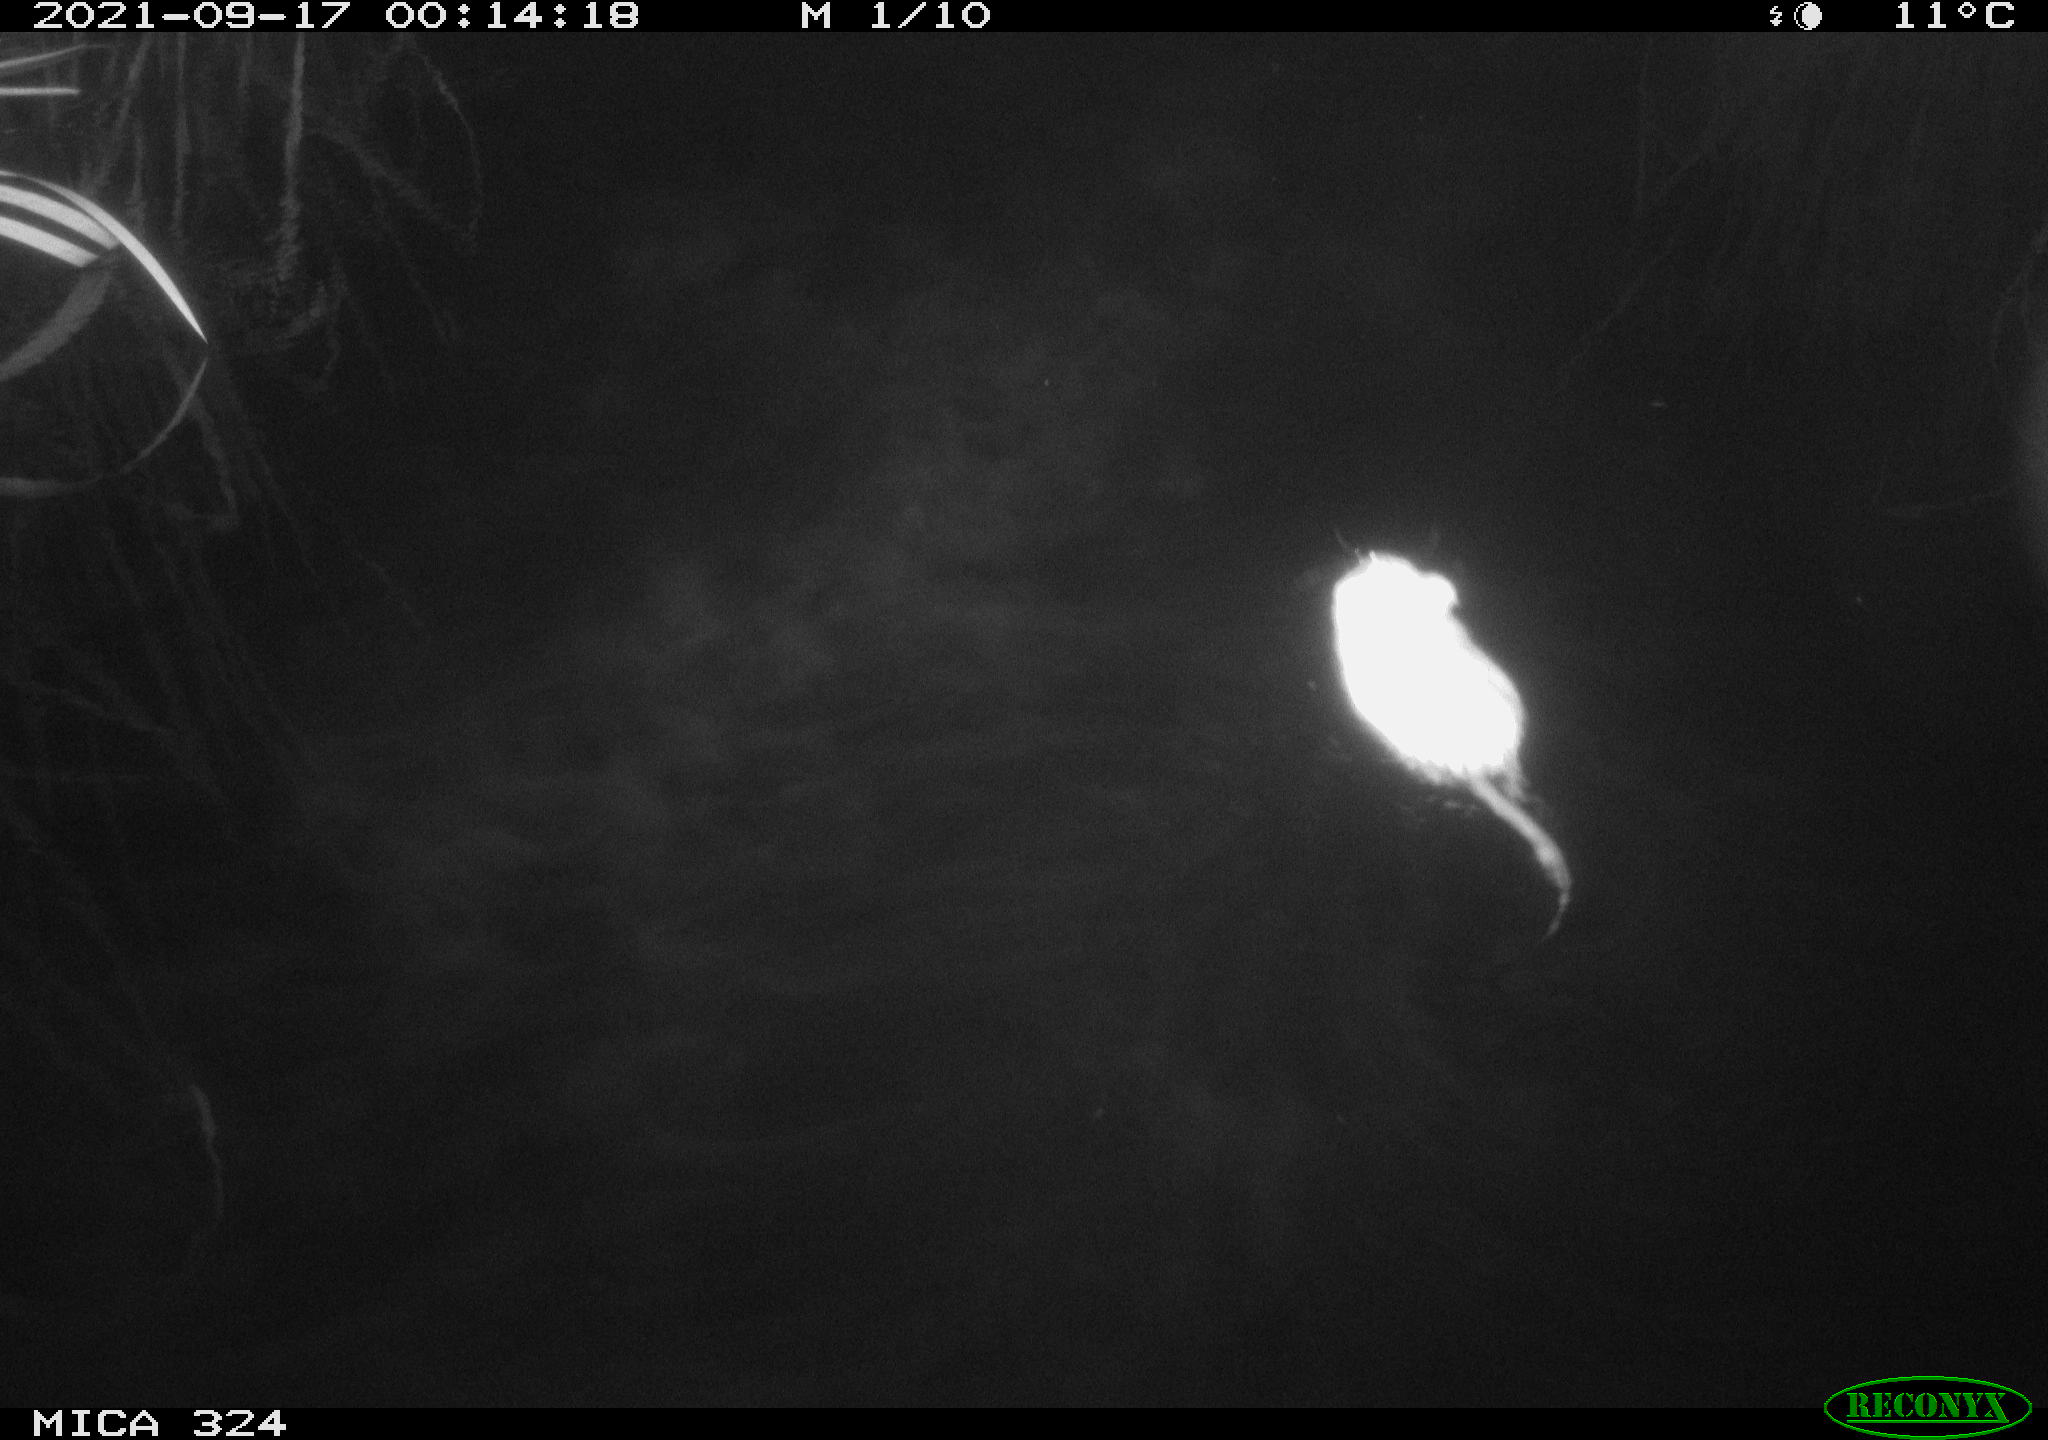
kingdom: Animalia
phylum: Chordata
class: Mammalia
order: Rodentia
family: Cricetidae
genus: Ondatra
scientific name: Ondatra zibethicus
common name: Muskrat
